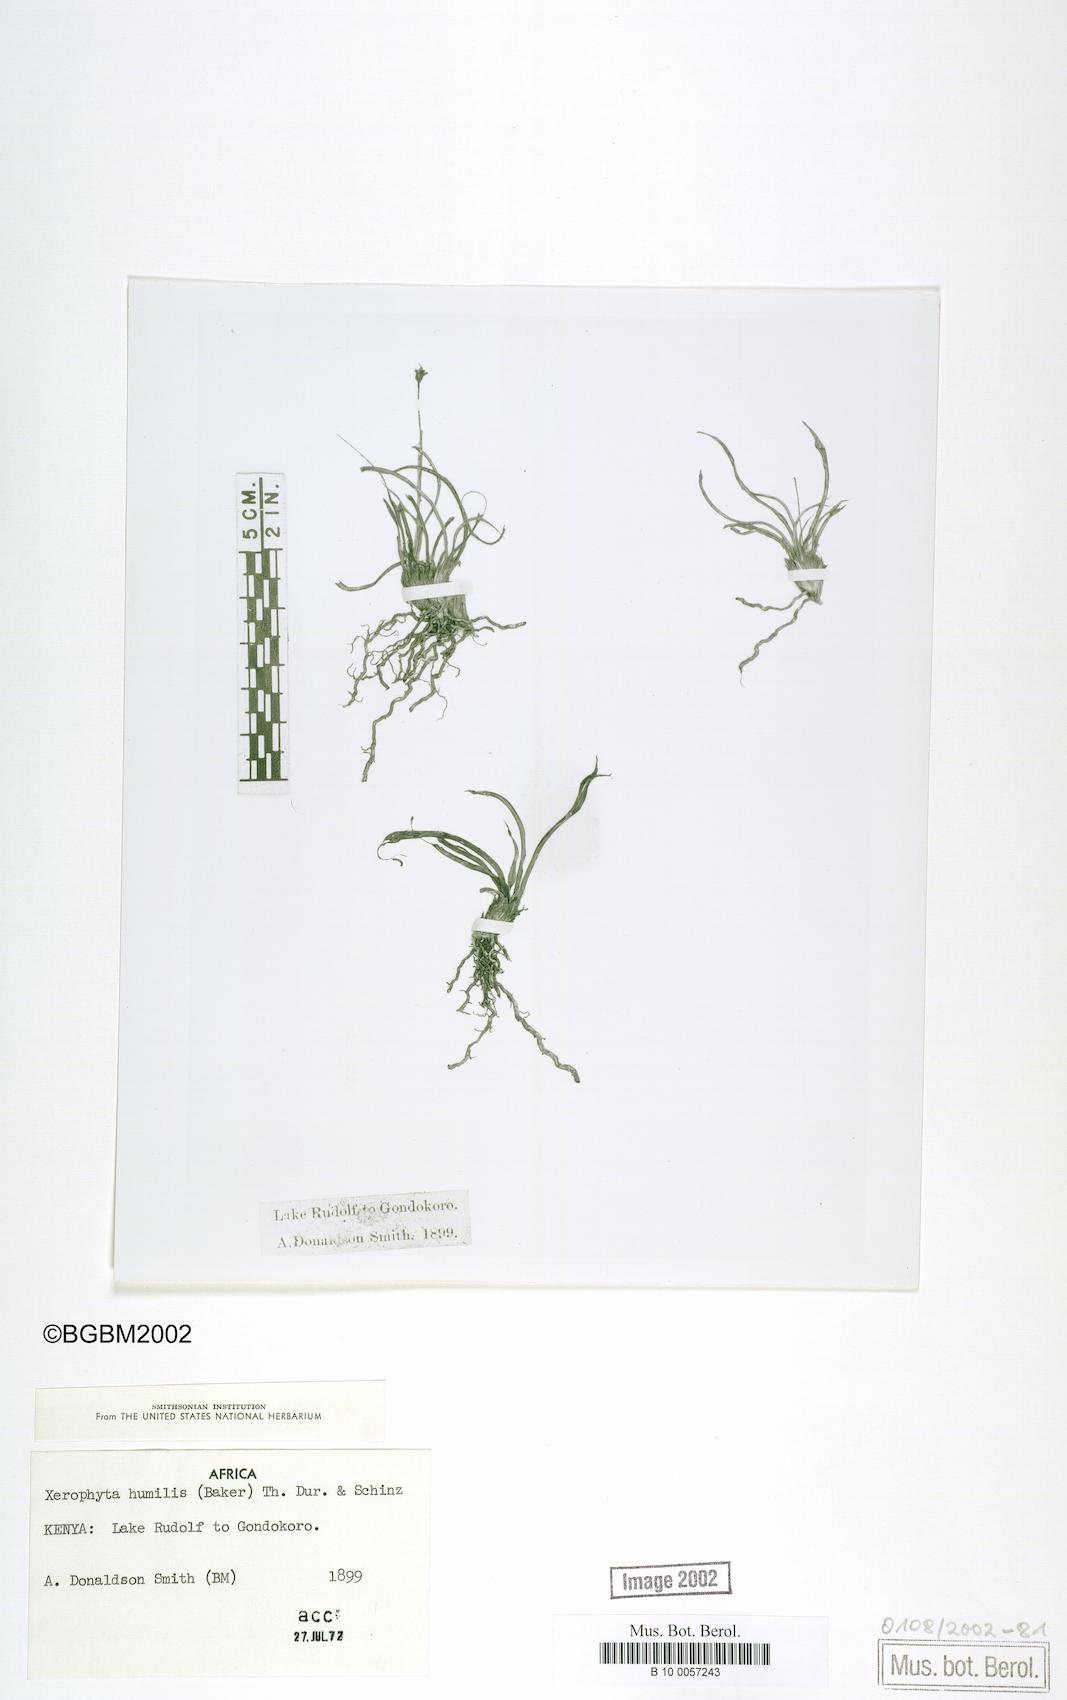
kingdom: Plantae
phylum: Tracheophyta
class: Liliopsida
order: Pandanales
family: Velloziaceae
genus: Xerophyta
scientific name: Xerophyta humilis
